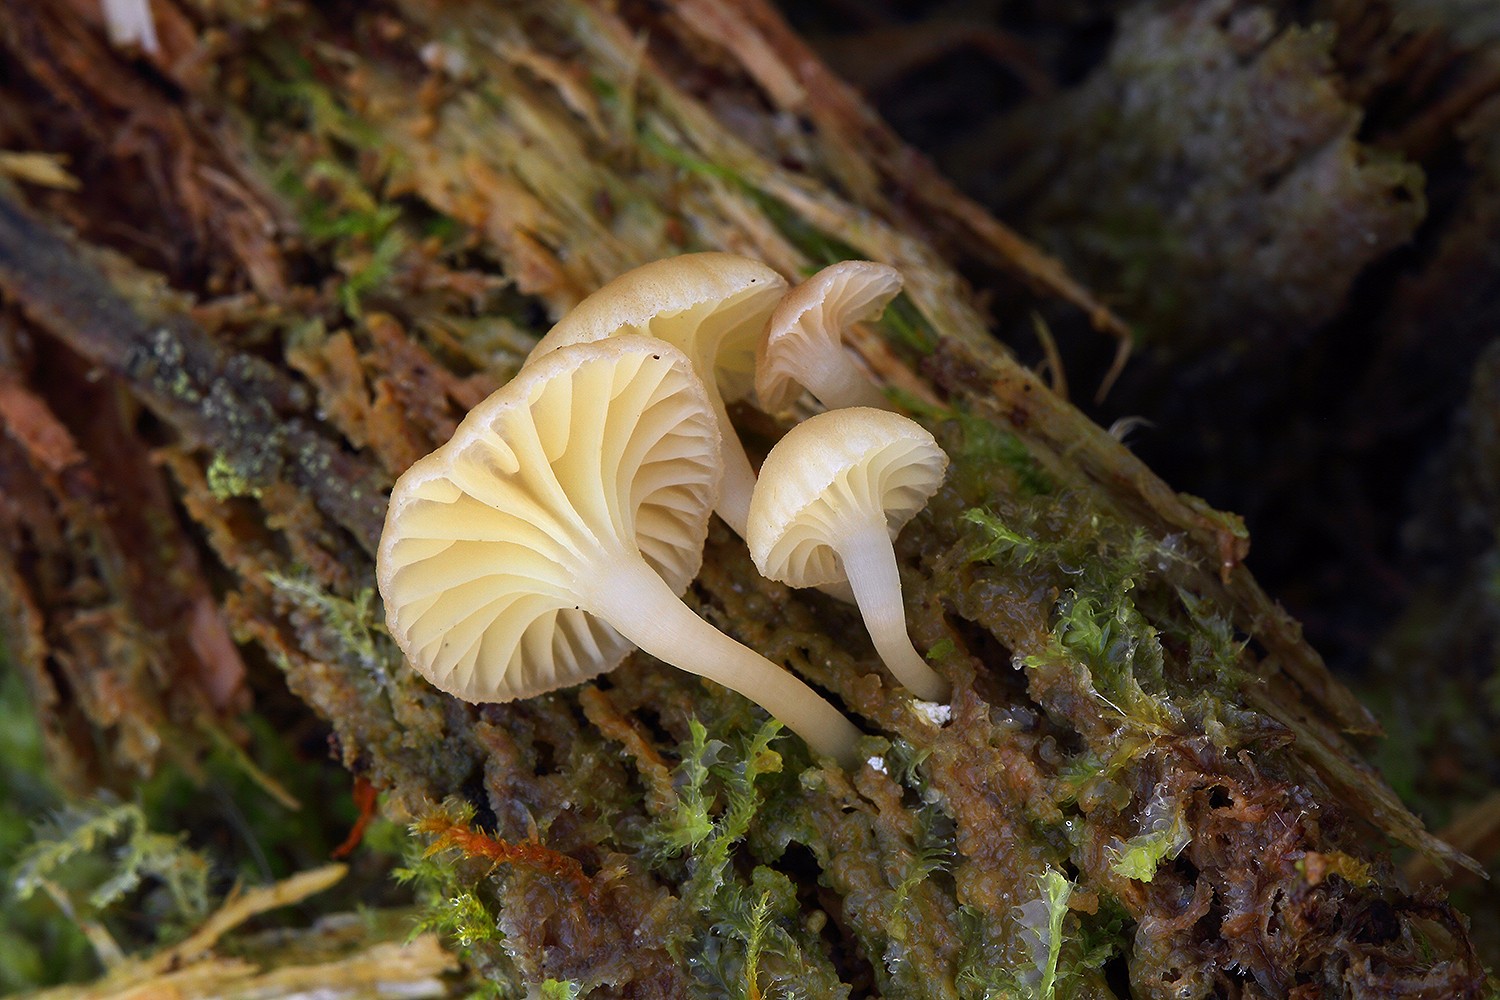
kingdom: Fungi
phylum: Basidiomycota
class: Agaricomycetes
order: Agaricales
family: Hygrophoraceae
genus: Chrysomphalina
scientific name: Chrysomphalina grossula
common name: stød-gyldenblad
